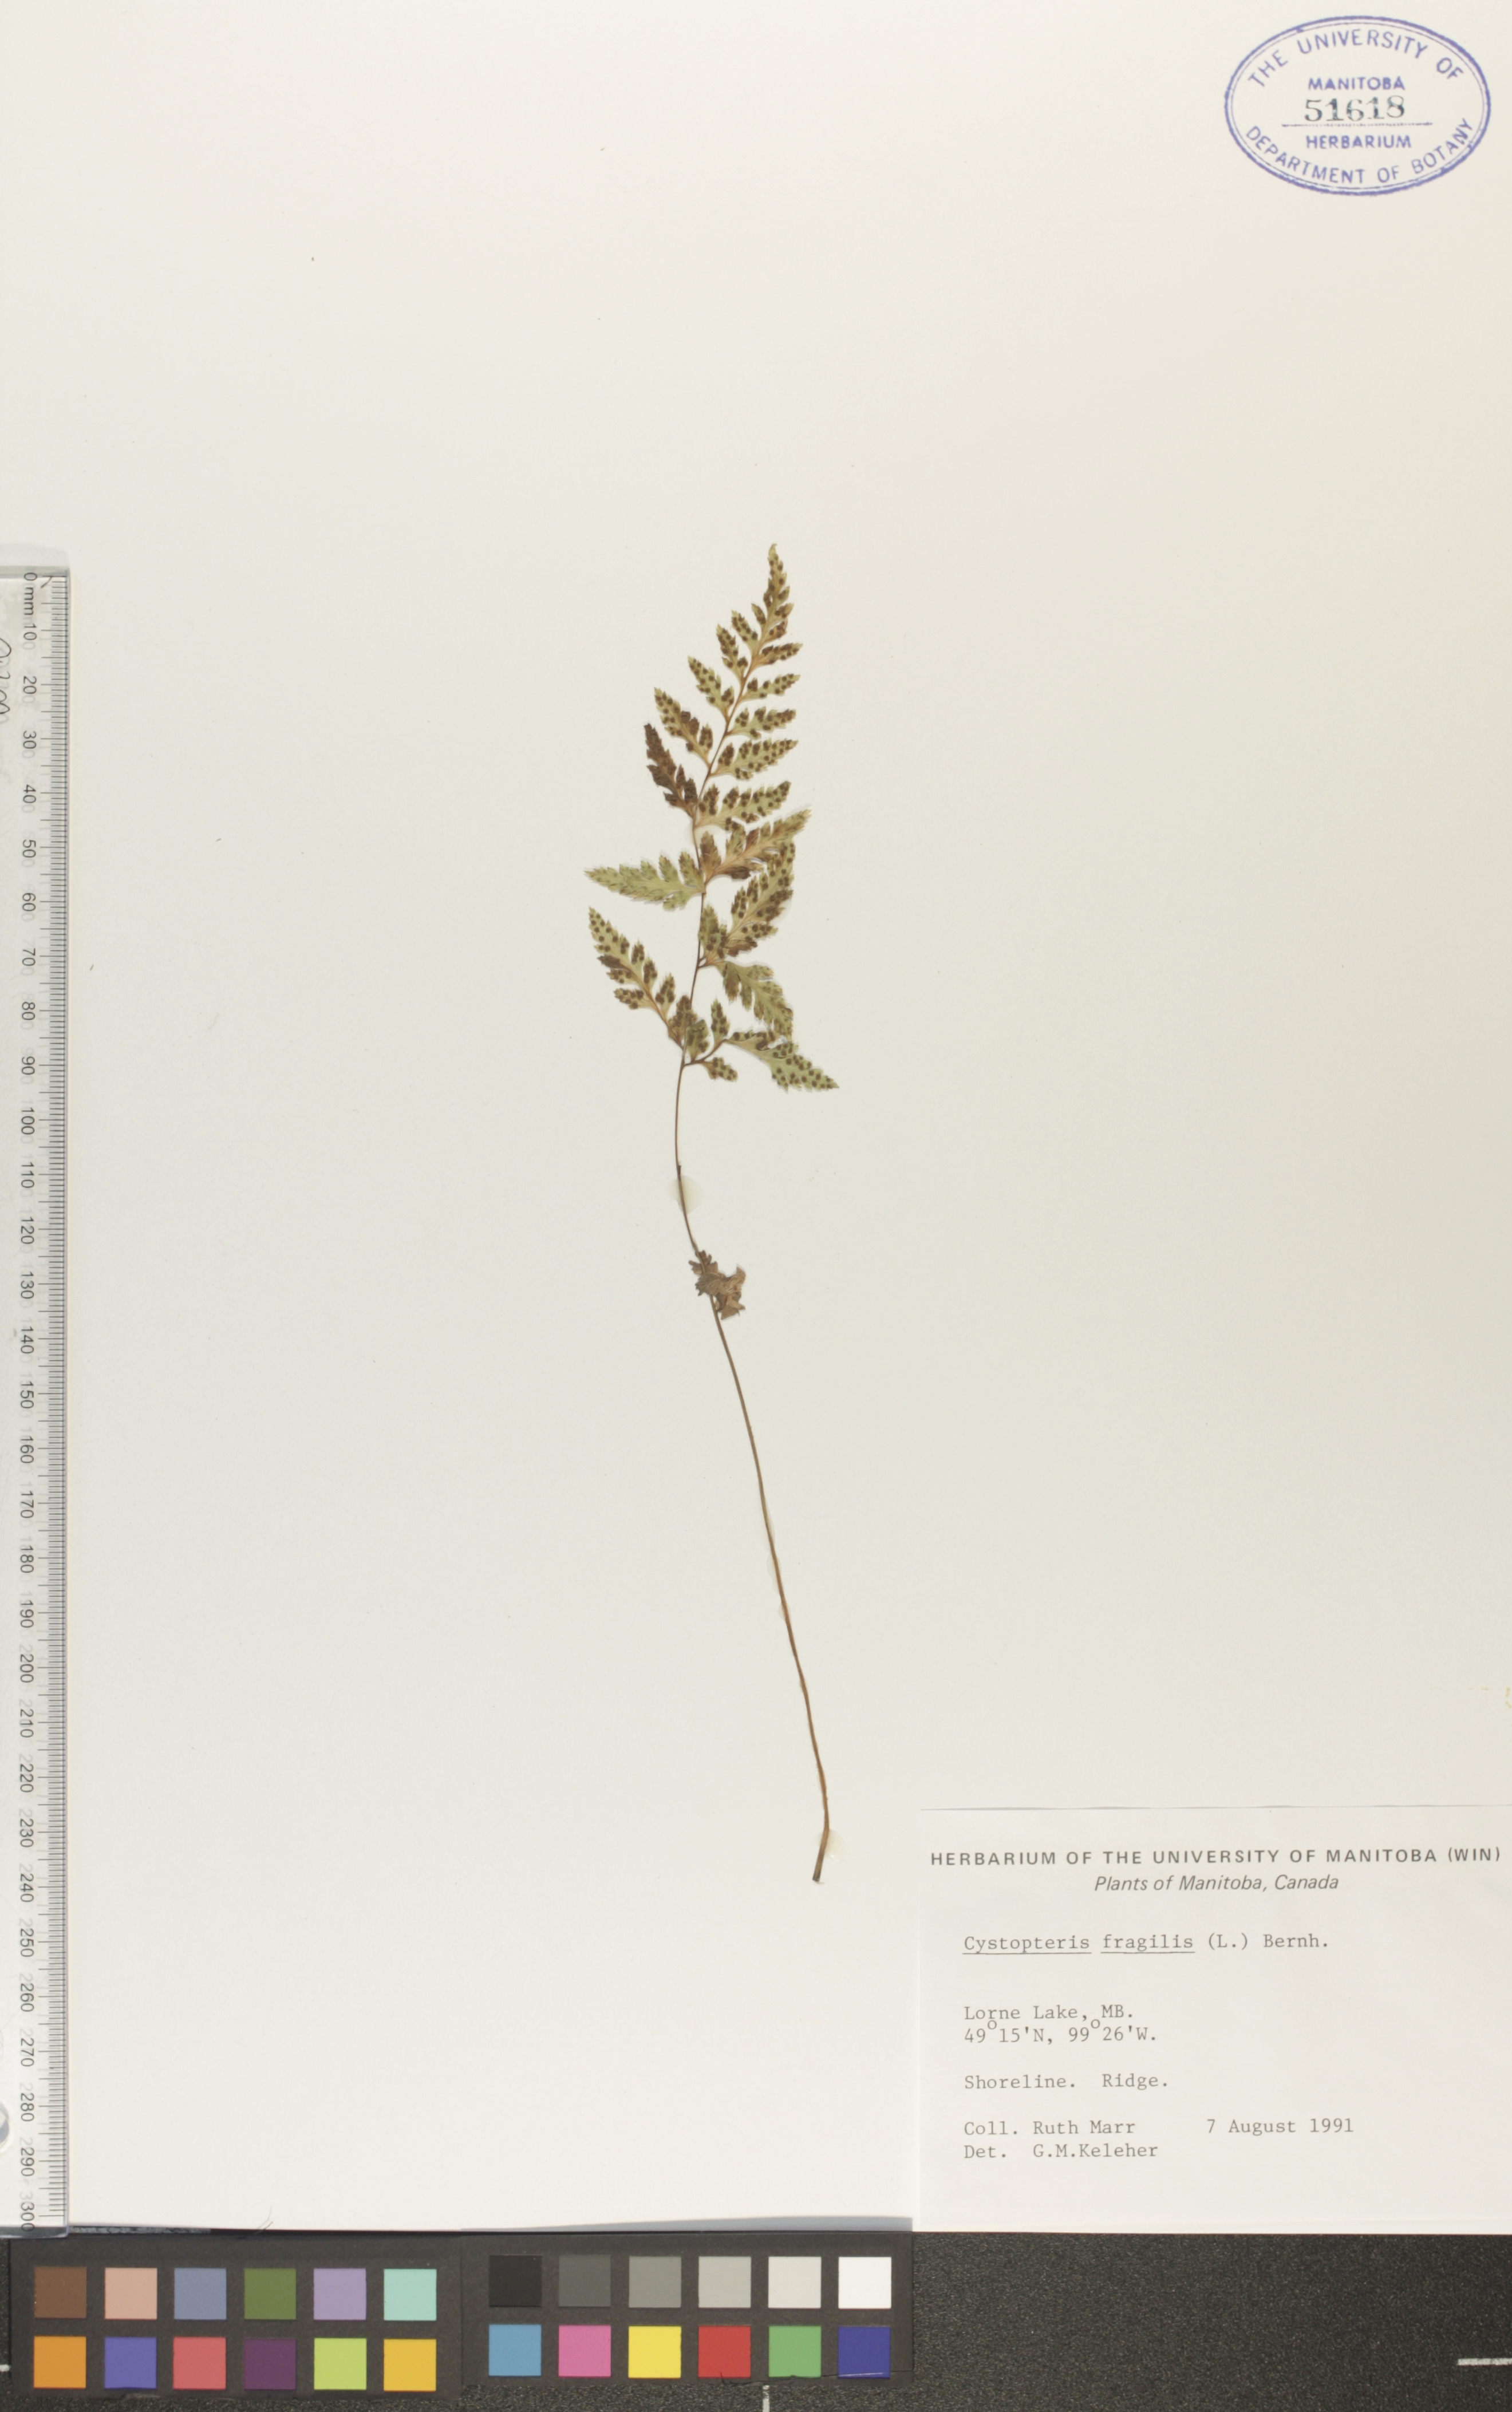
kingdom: Plantae
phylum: Tracheophyta
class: Polypodiopsida
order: Polypodiales
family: Cystopteridaceae
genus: Cystopteris
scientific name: Cystopteris tenuis
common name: Mackay's brittle fern
